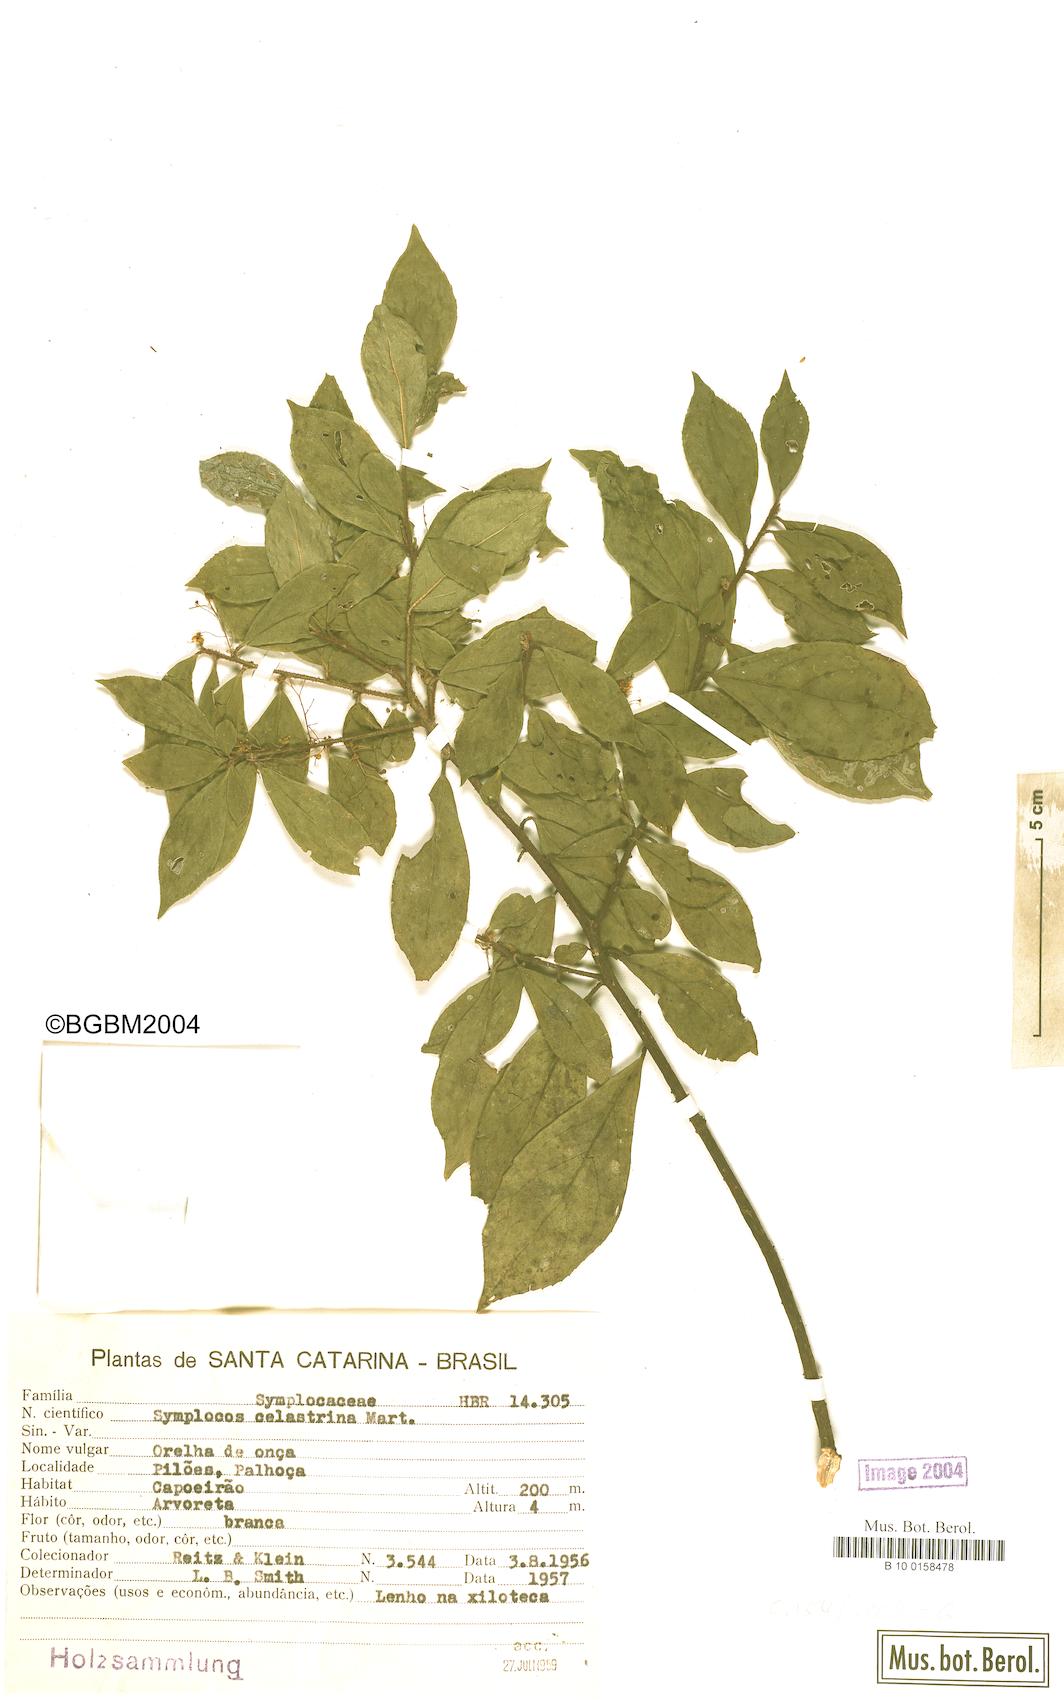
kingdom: Plantae
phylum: Tracheophyta
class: Magnoliopsida
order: Ericales
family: Symplocaceae
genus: Symplocos
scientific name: Symplocos pustulosa
